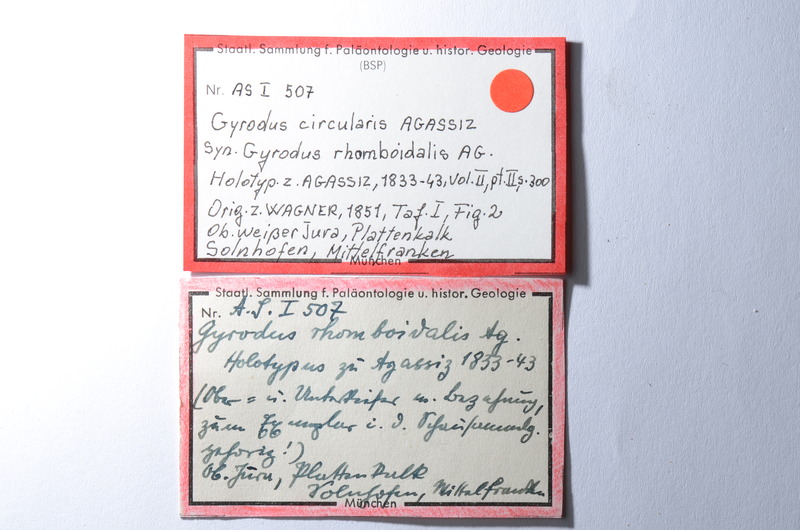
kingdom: Animalia
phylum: Chordata
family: Gyrodontidae
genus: Gyrodus
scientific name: Gyrodus circularis
